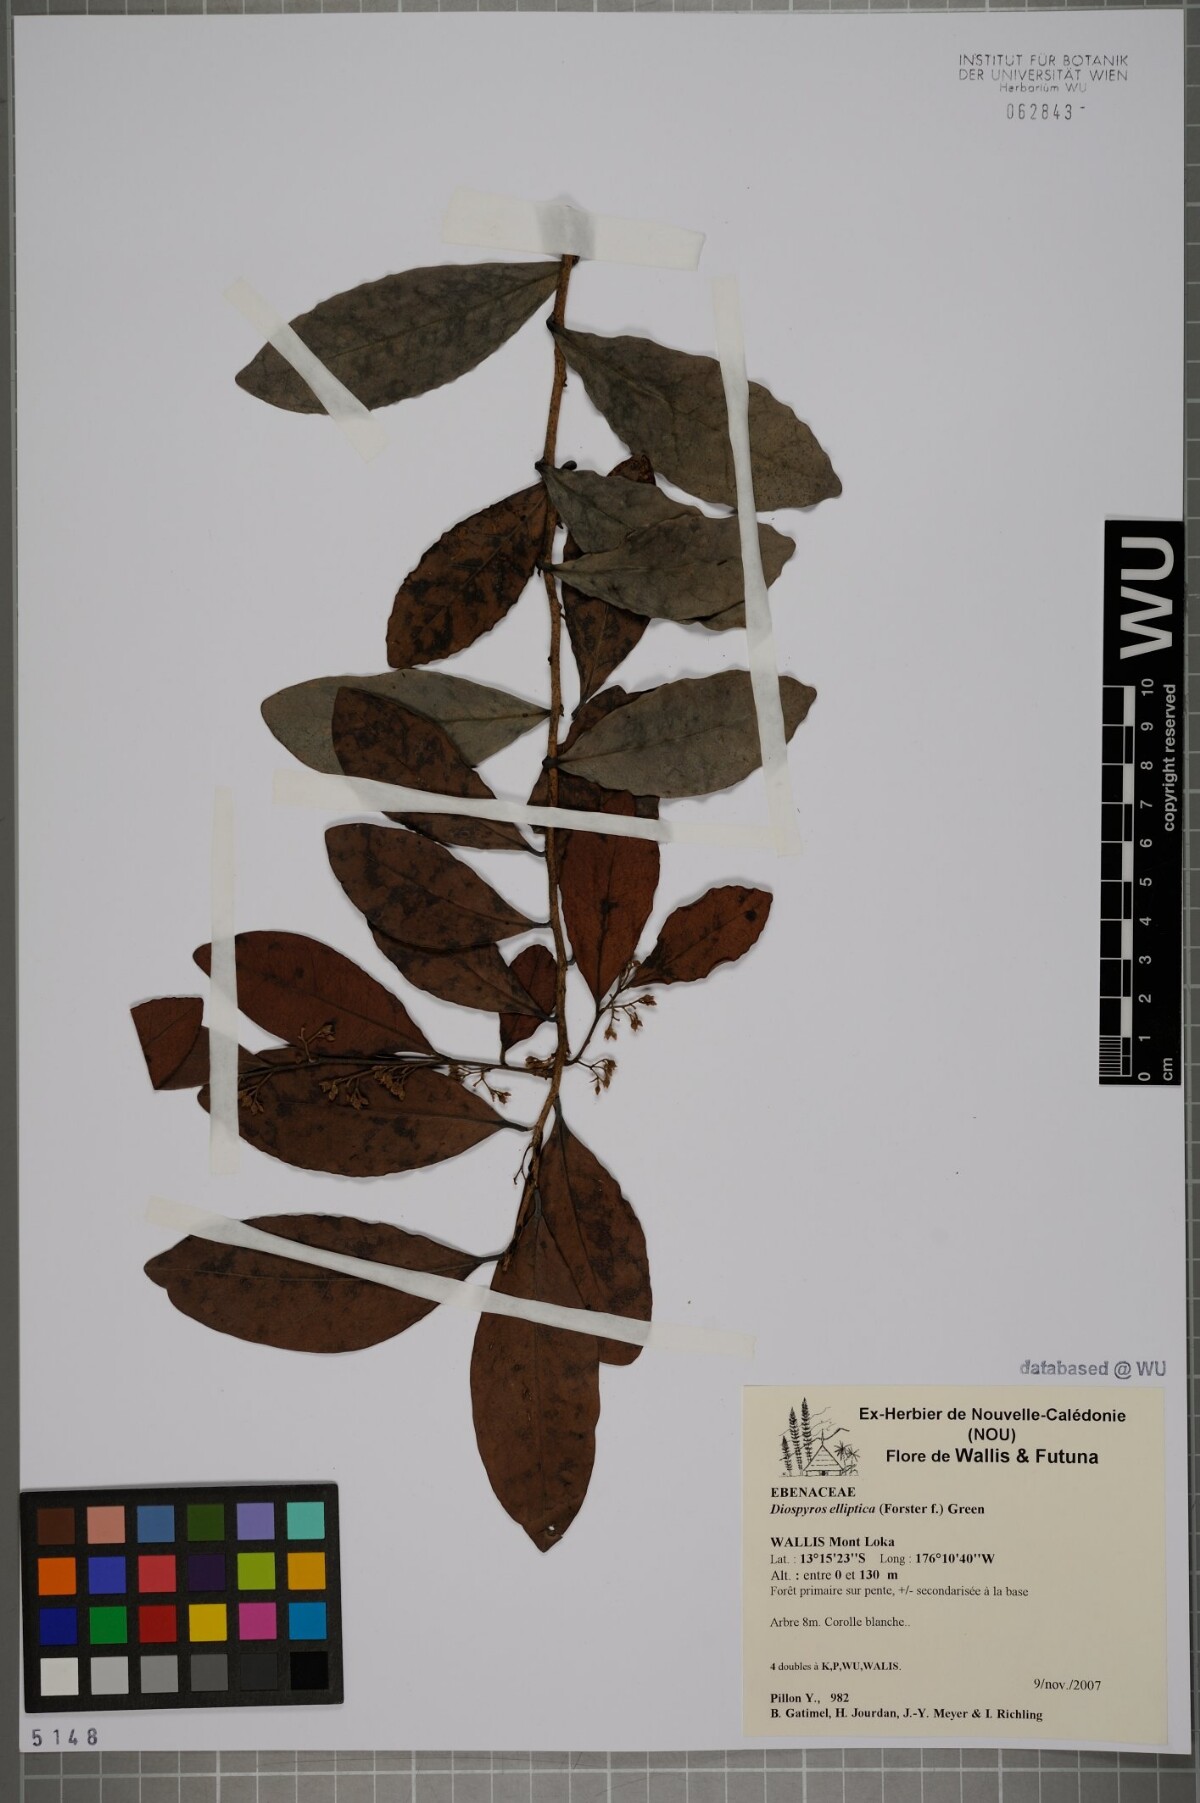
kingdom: Plantae
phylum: Tracheophyta
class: Magnoliopsida
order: Ericales
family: Ebenaceae
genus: Diospyros
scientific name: Diospyros foliosa
